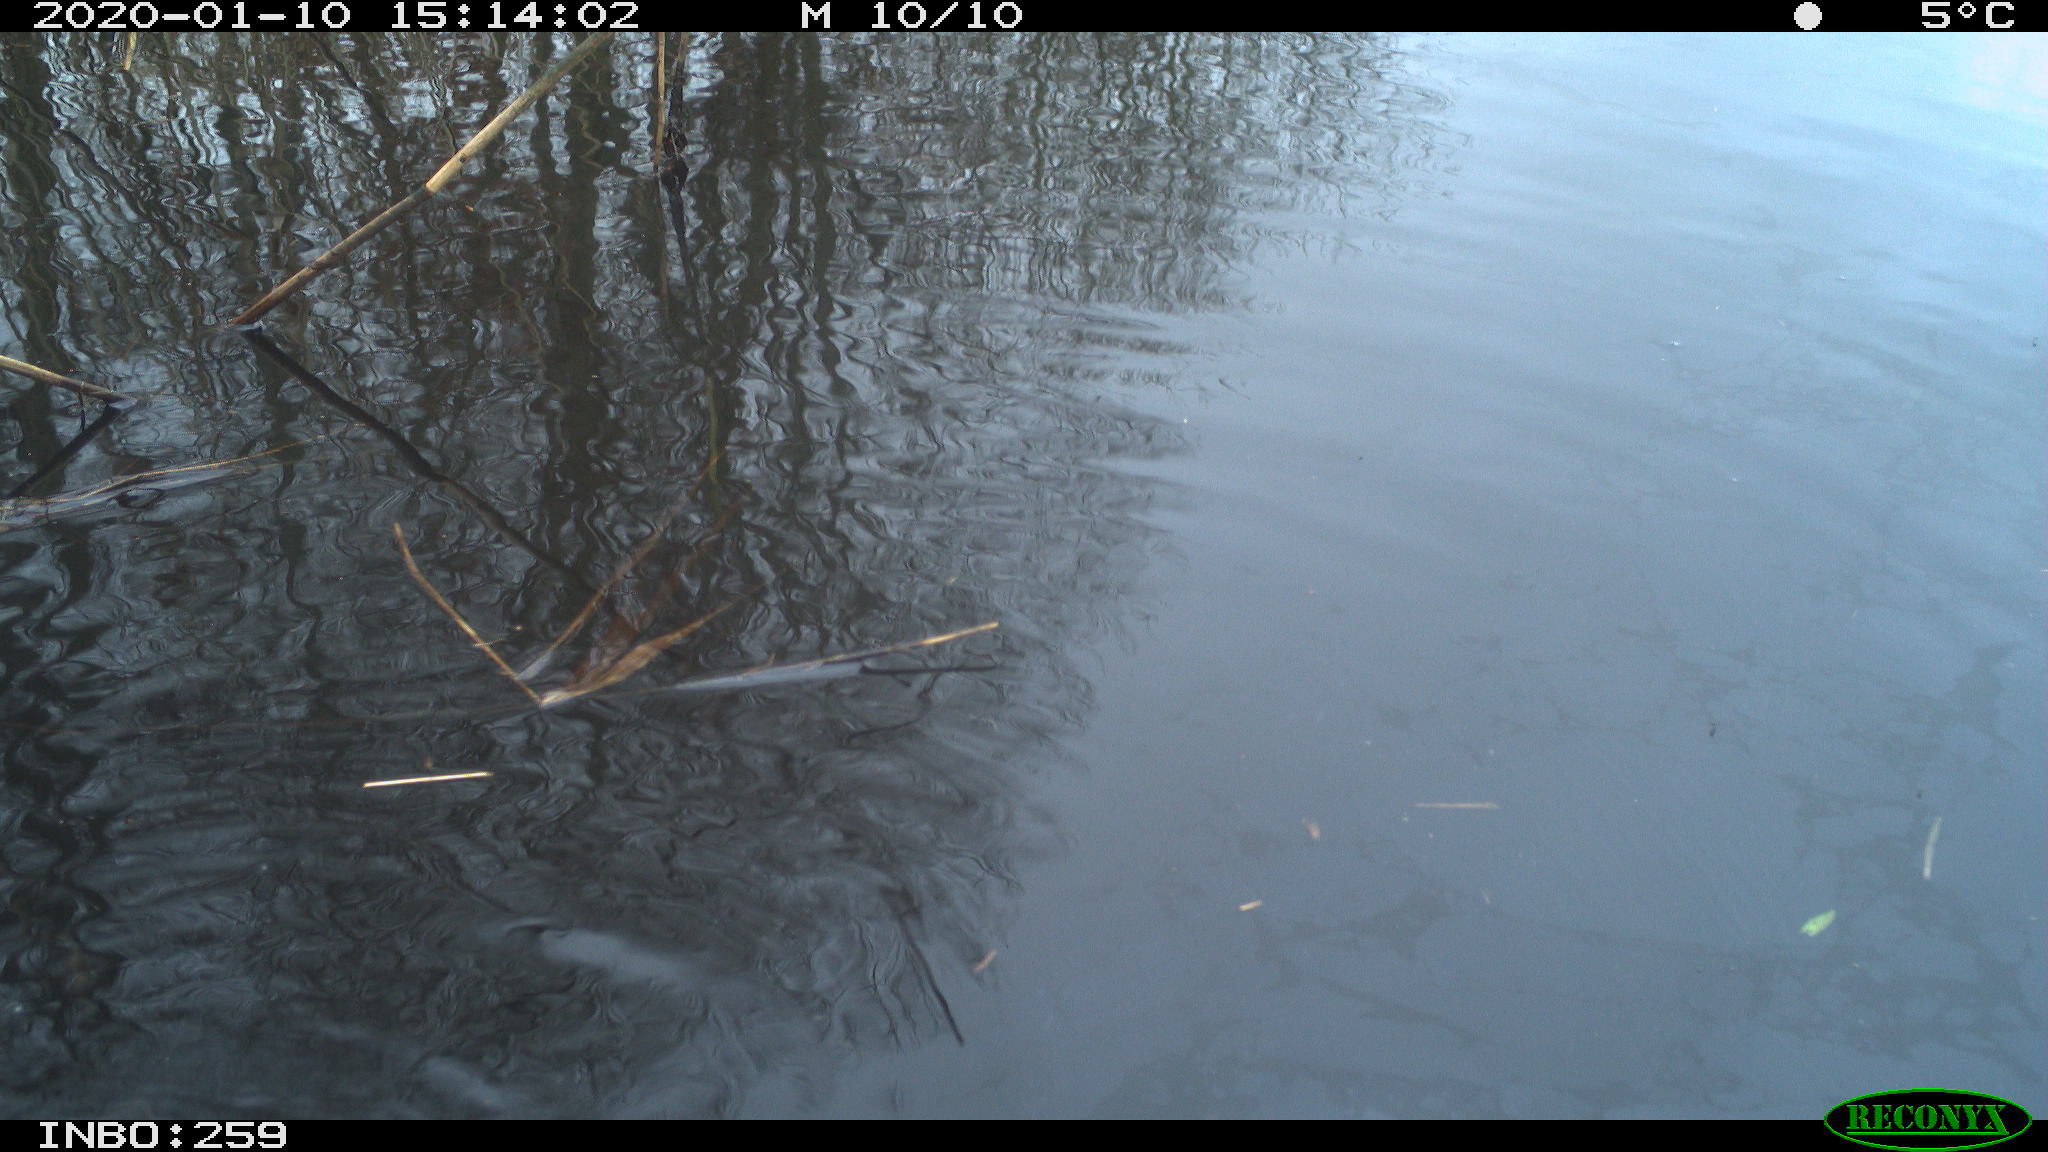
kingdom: Animalia
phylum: Chordata
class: Aves
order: Gruiformes
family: Rallidae
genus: Gallinula
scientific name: Gallinula chloropus
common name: Common moorhen
